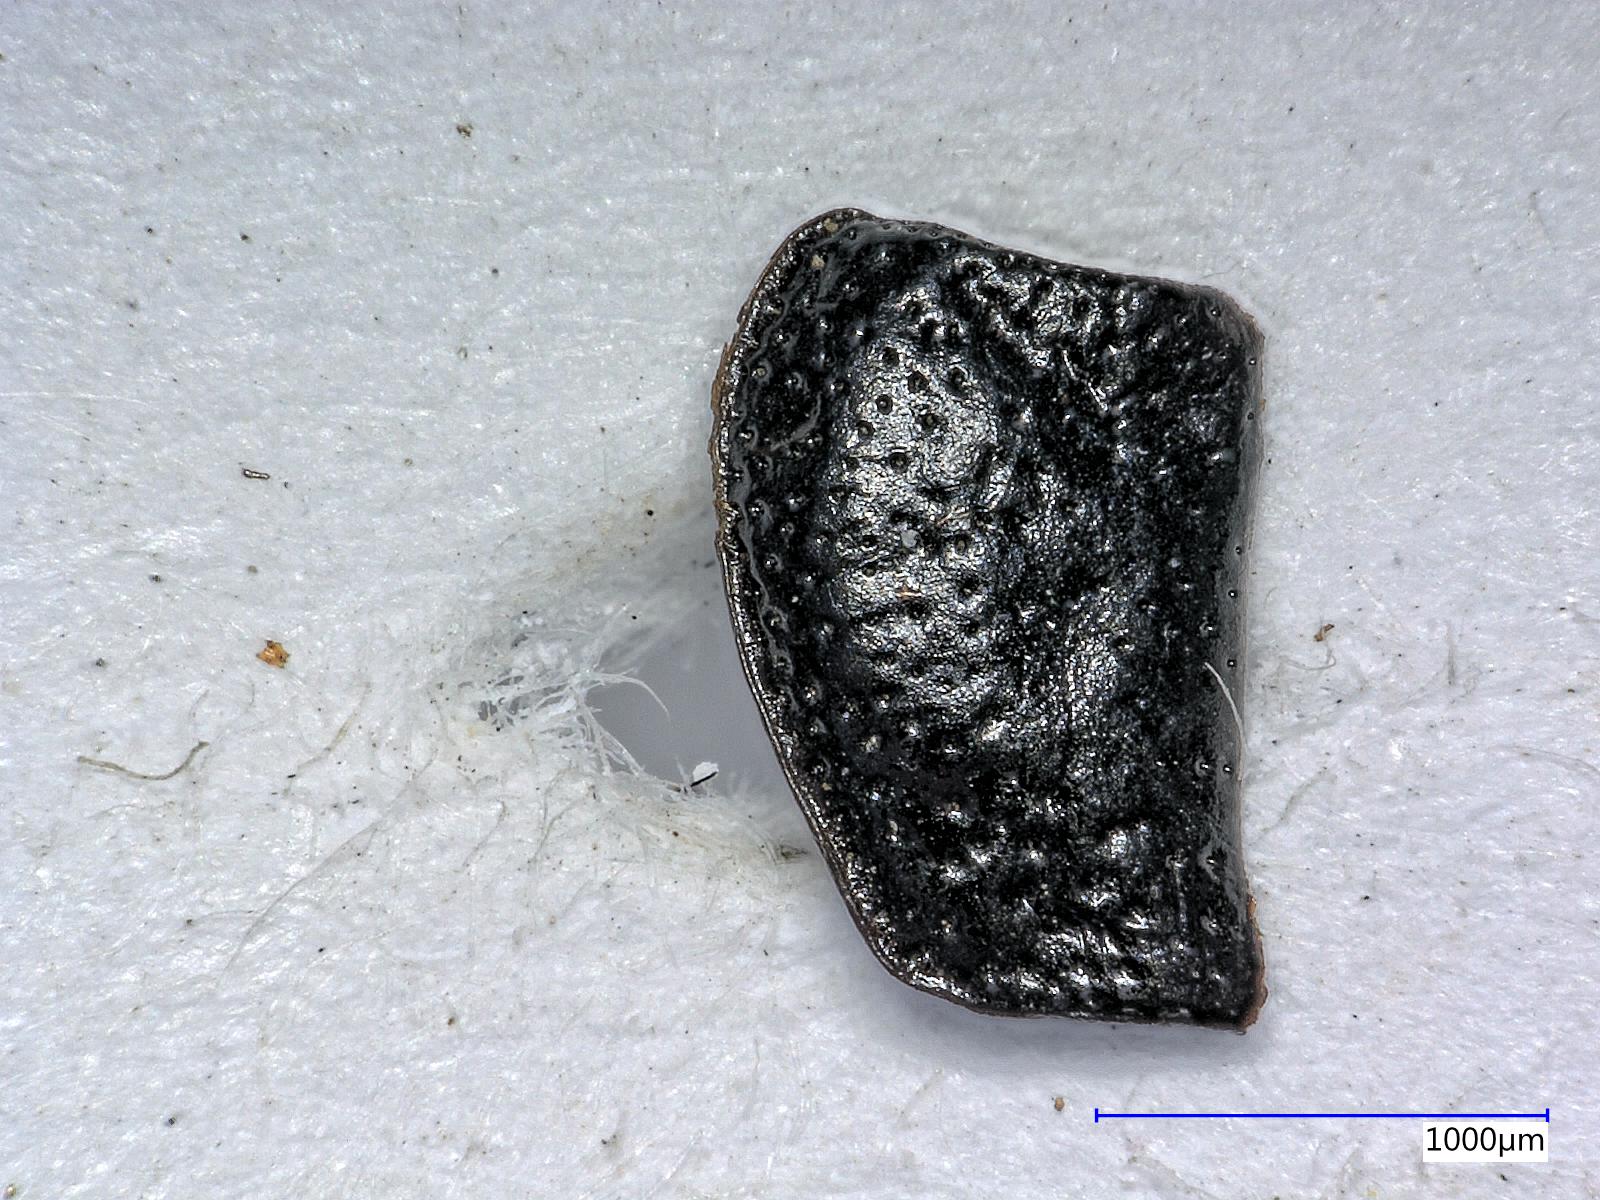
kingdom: Animalia
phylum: Arthropoda
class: Insecta
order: Coleoptera
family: Carabidae
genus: Dicheirus
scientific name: Dicheirus dilatatus
